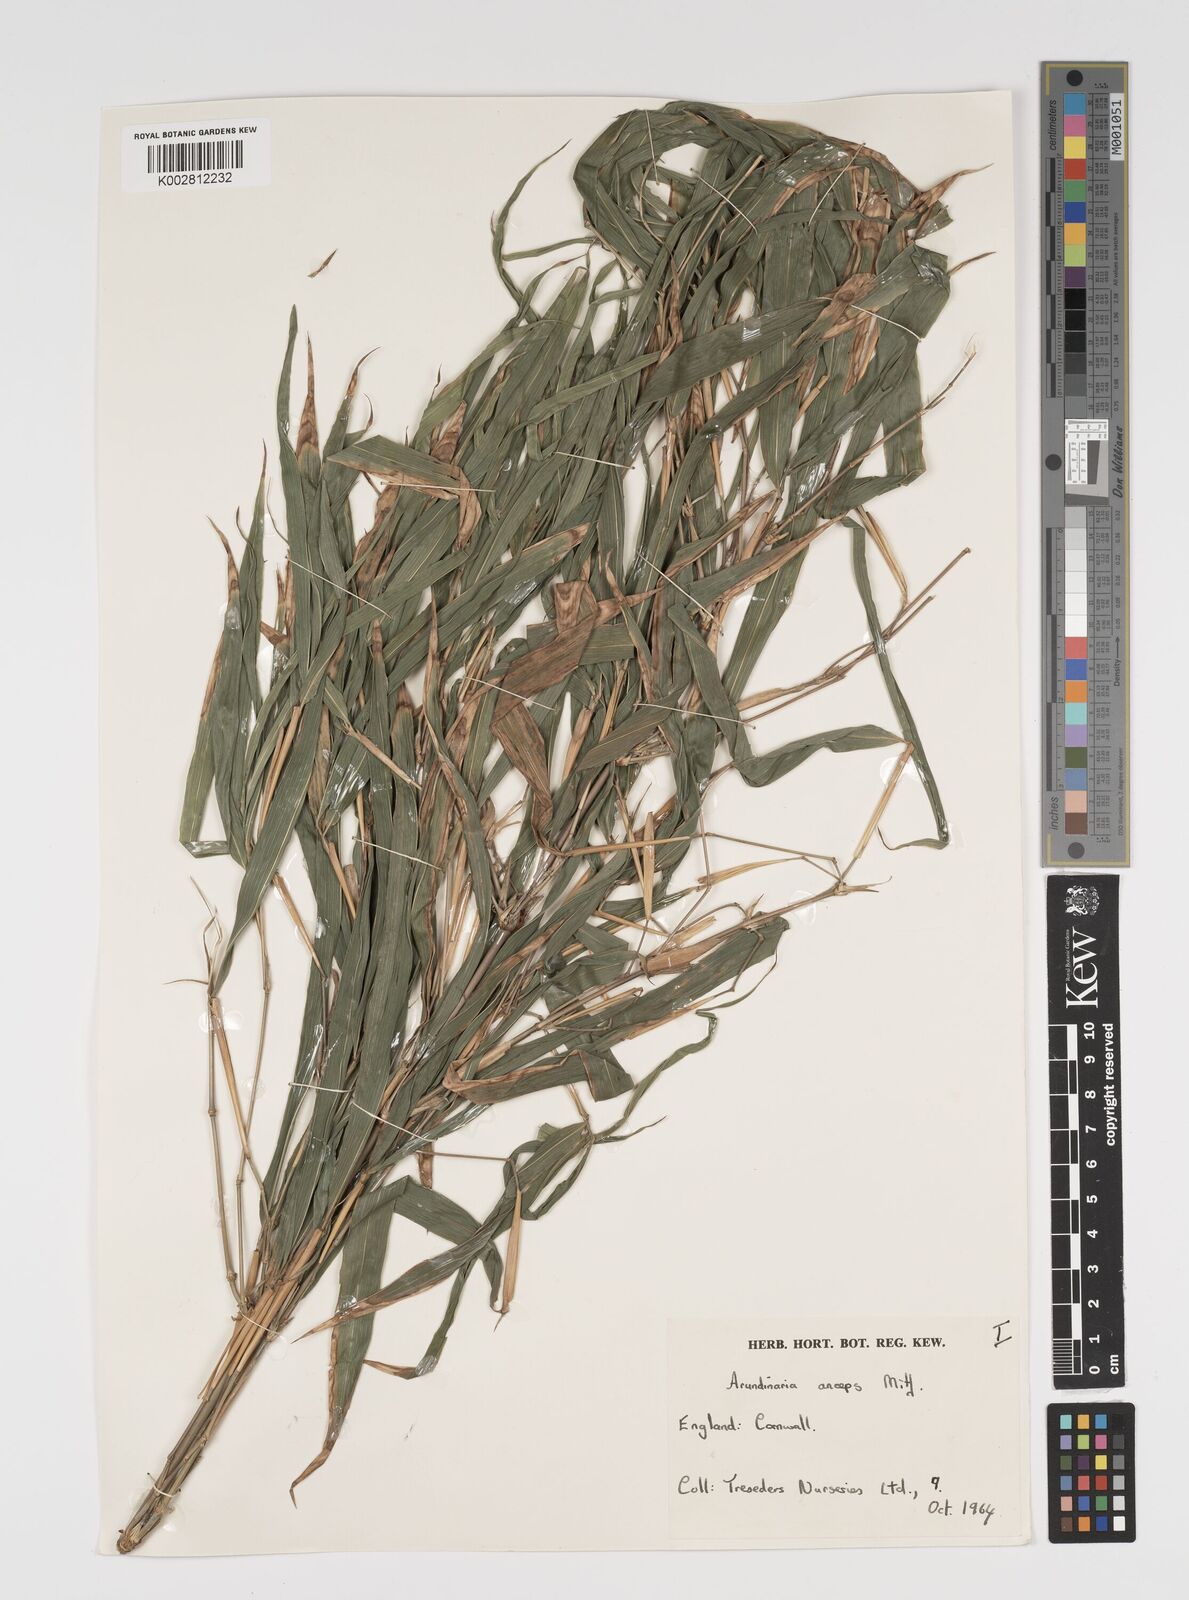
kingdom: Plantae
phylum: Tracheophyta
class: Liliopsida
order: Poales
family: Poaceae
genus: Yushania
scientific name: Yushania anceps
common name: Indian fountain-bamboo
